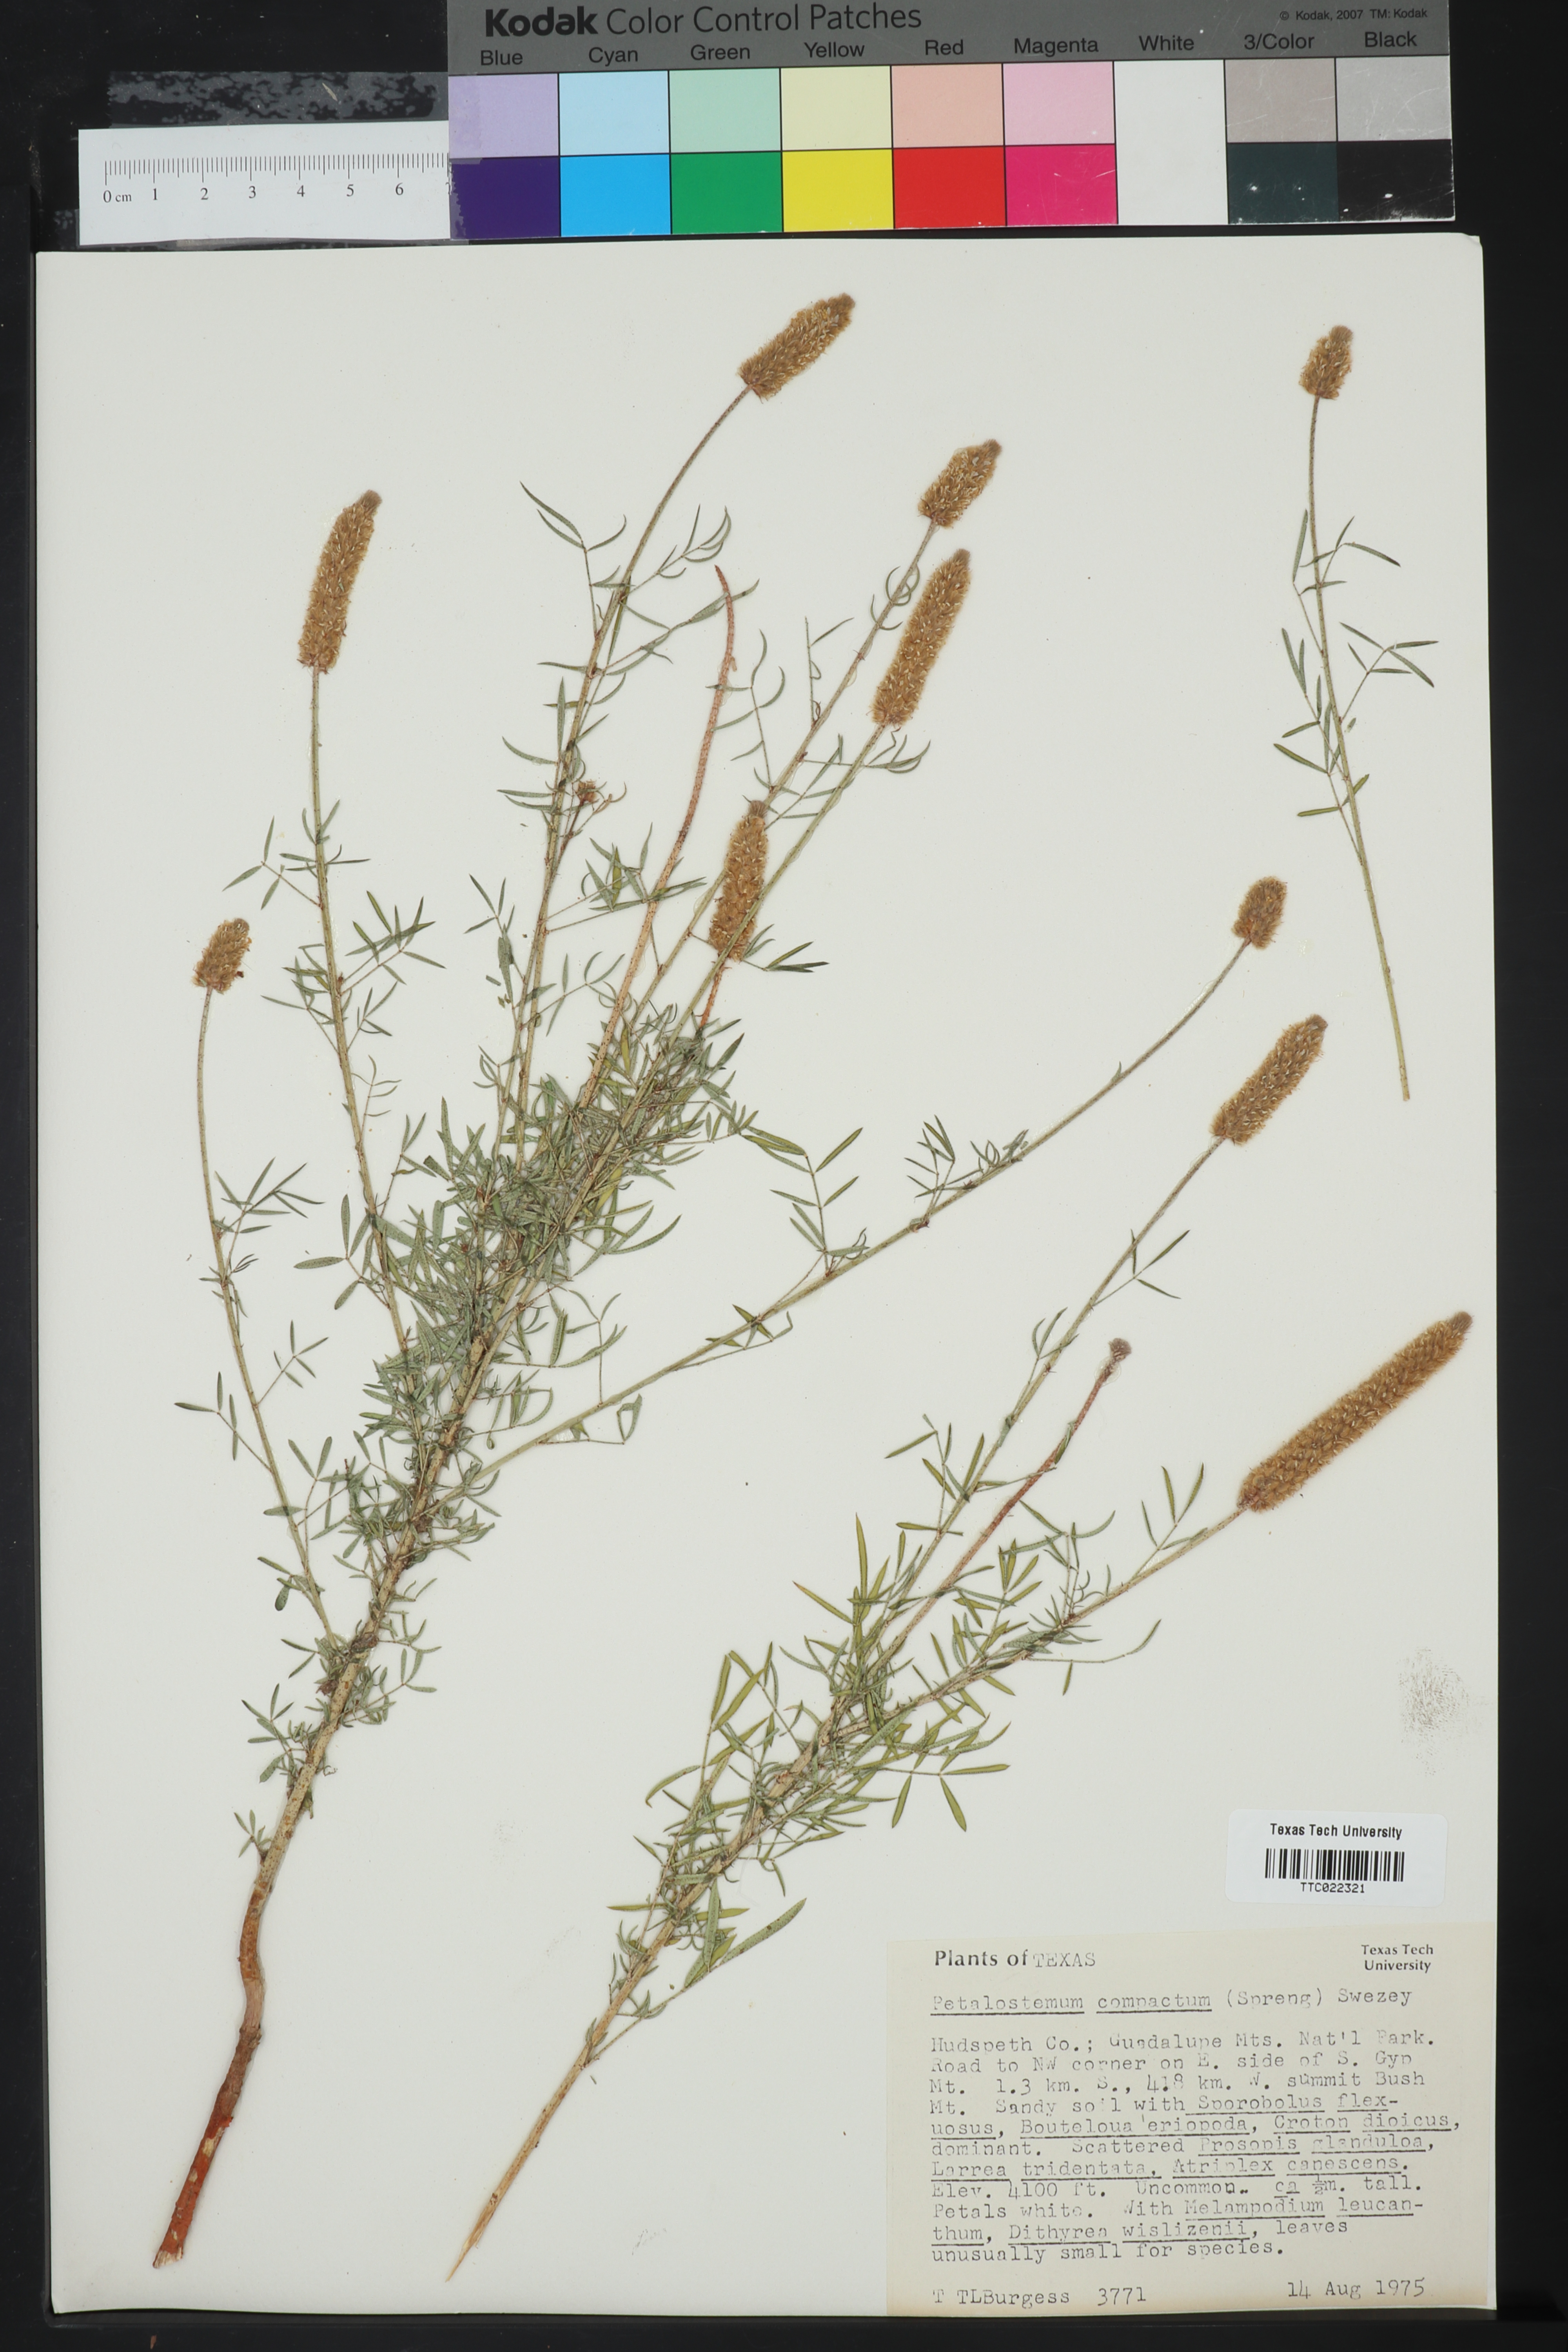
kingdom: Plantae
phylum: Tracheophyta
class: Magnoliopsida
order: Fabales
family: Fabaceae
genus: Dalea
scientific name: Dalea compacta
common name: Compact prairie-clover
